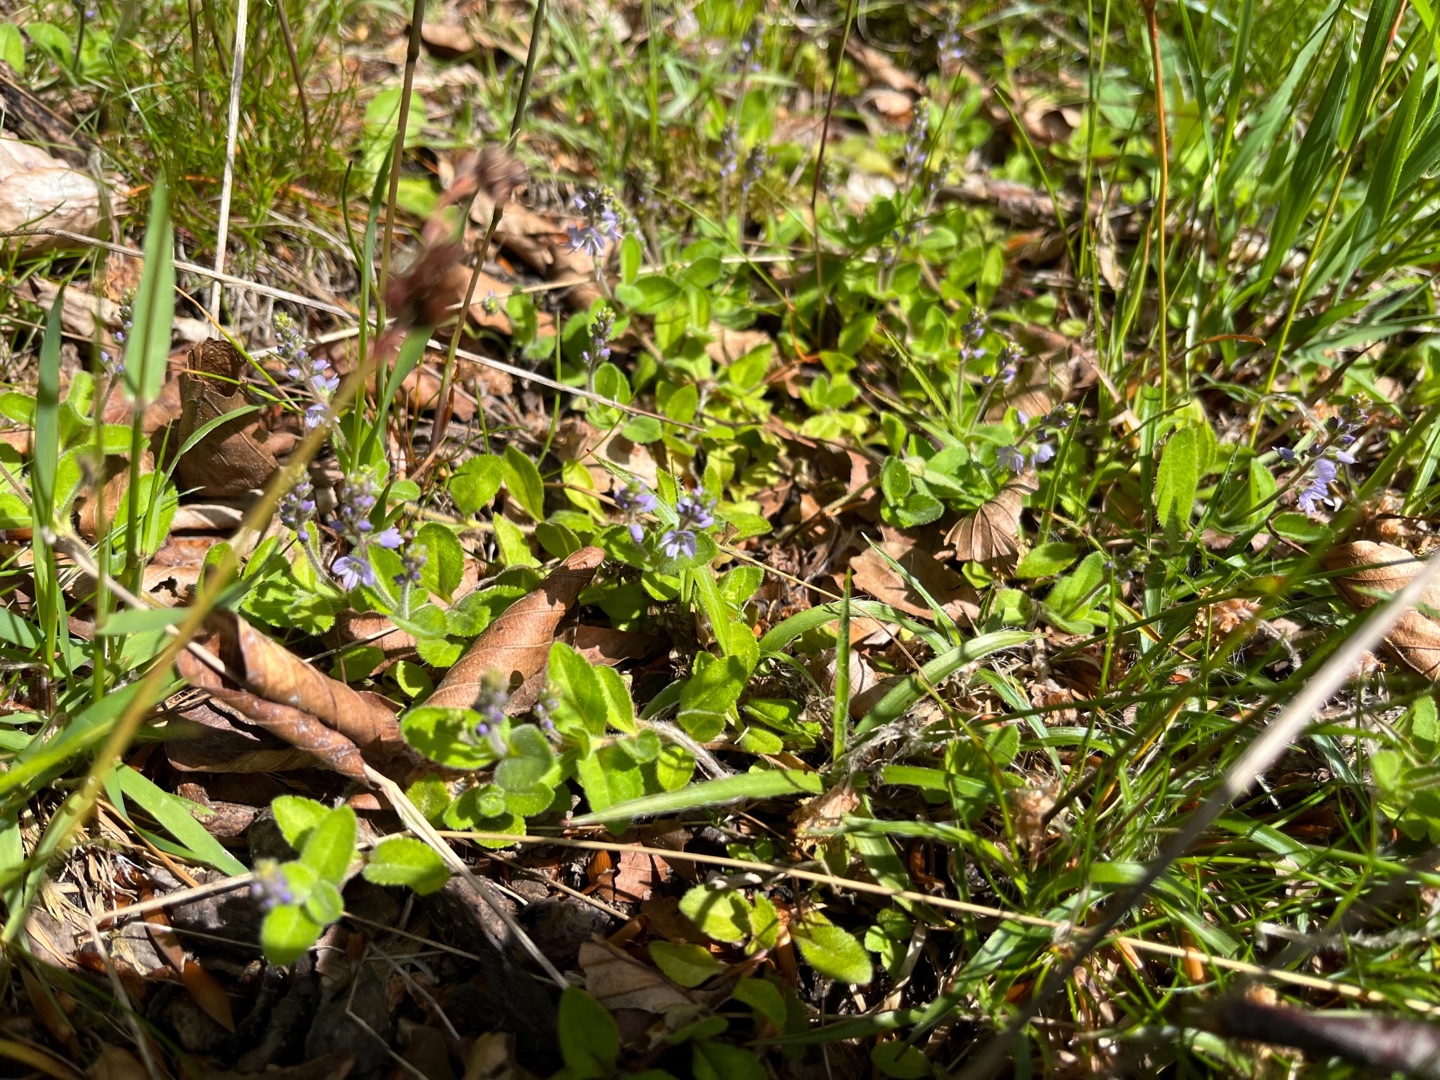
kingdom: Plantae
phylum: Tracheophyta
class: Magnoliopsida
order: Lamiales
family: Plantaginaceae
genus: Veronica
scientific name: Veronica officinalis
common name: Læge-ærenpris
